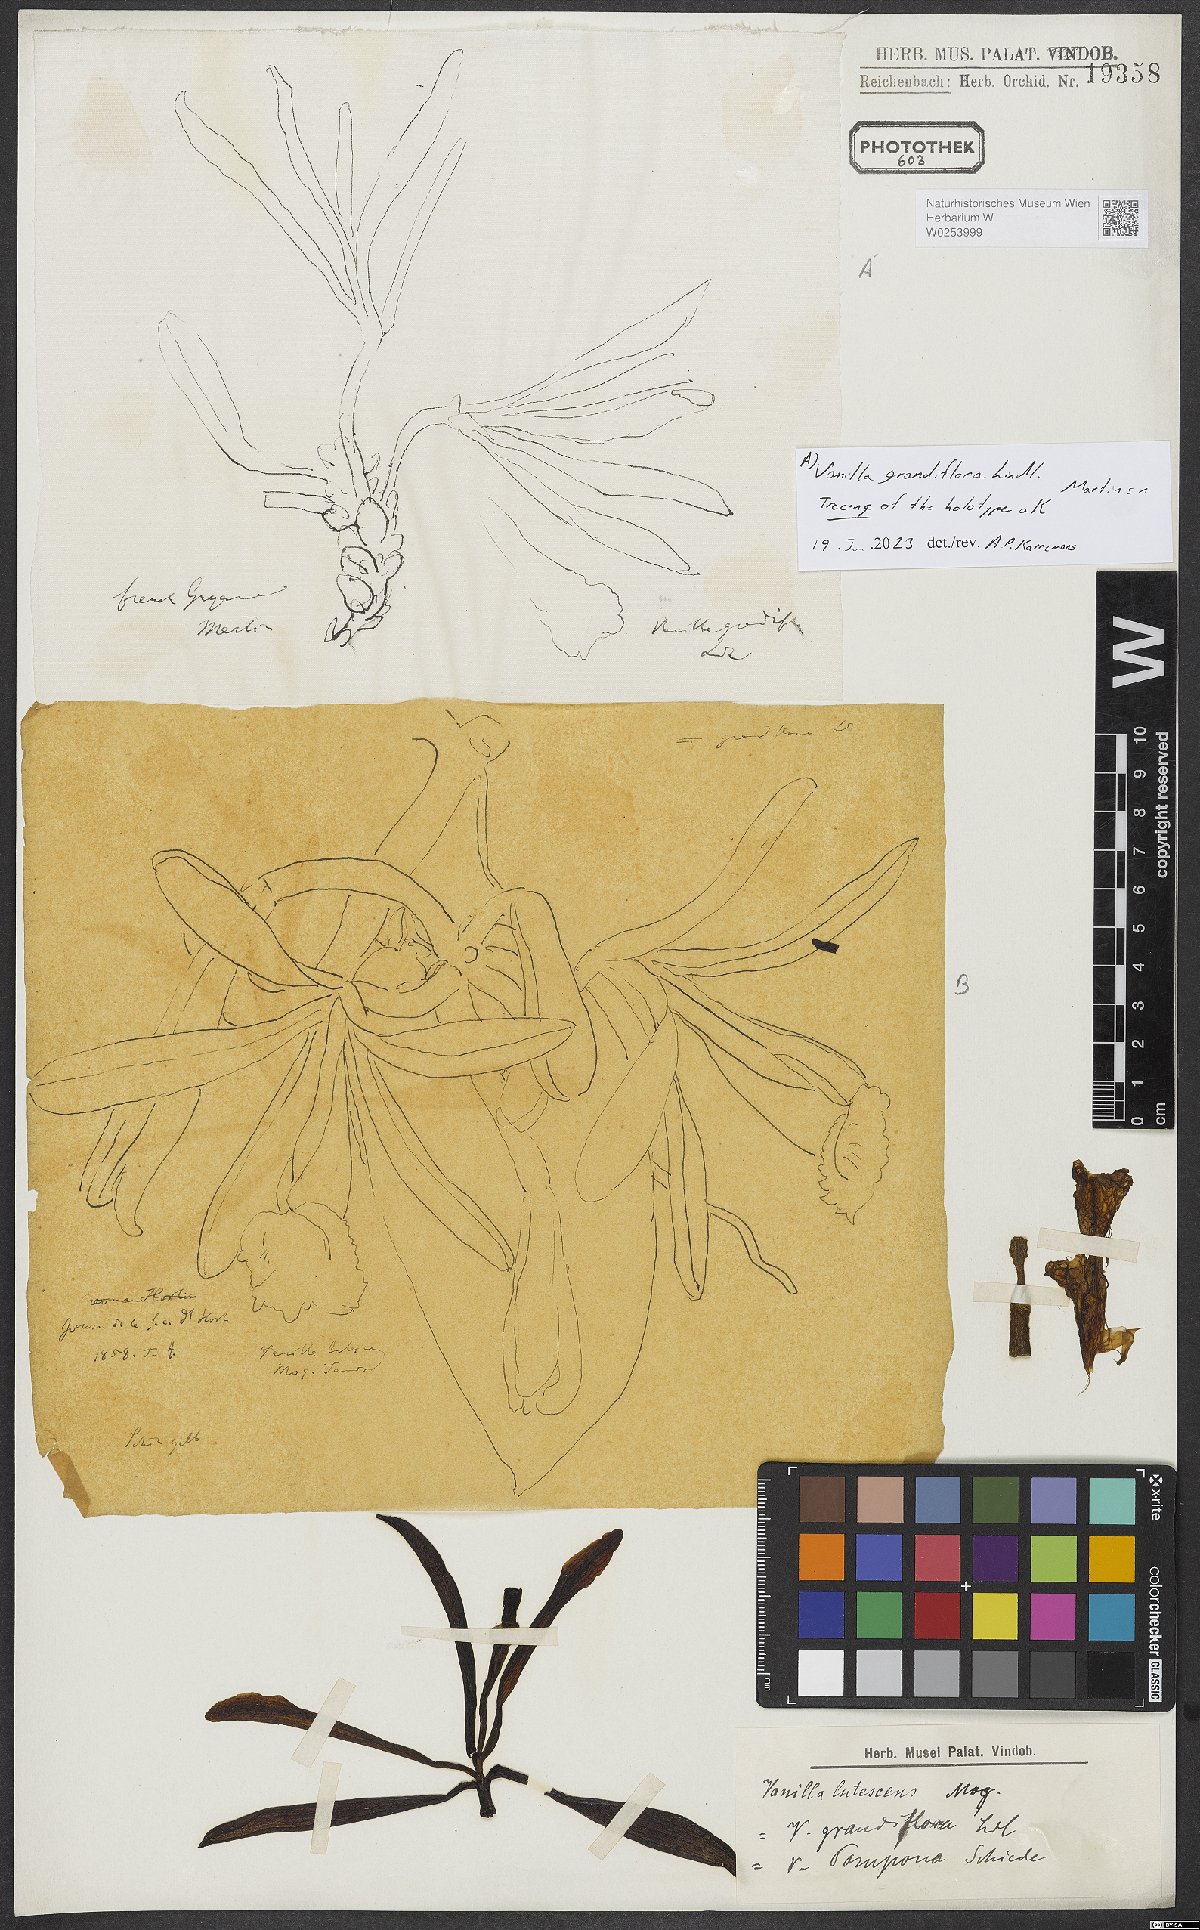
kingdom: Plantae
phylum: Tracheophyta
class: Liliopsida
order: Asparagales
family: Orchidaceae
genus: Vanilla
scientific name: Vanilla
